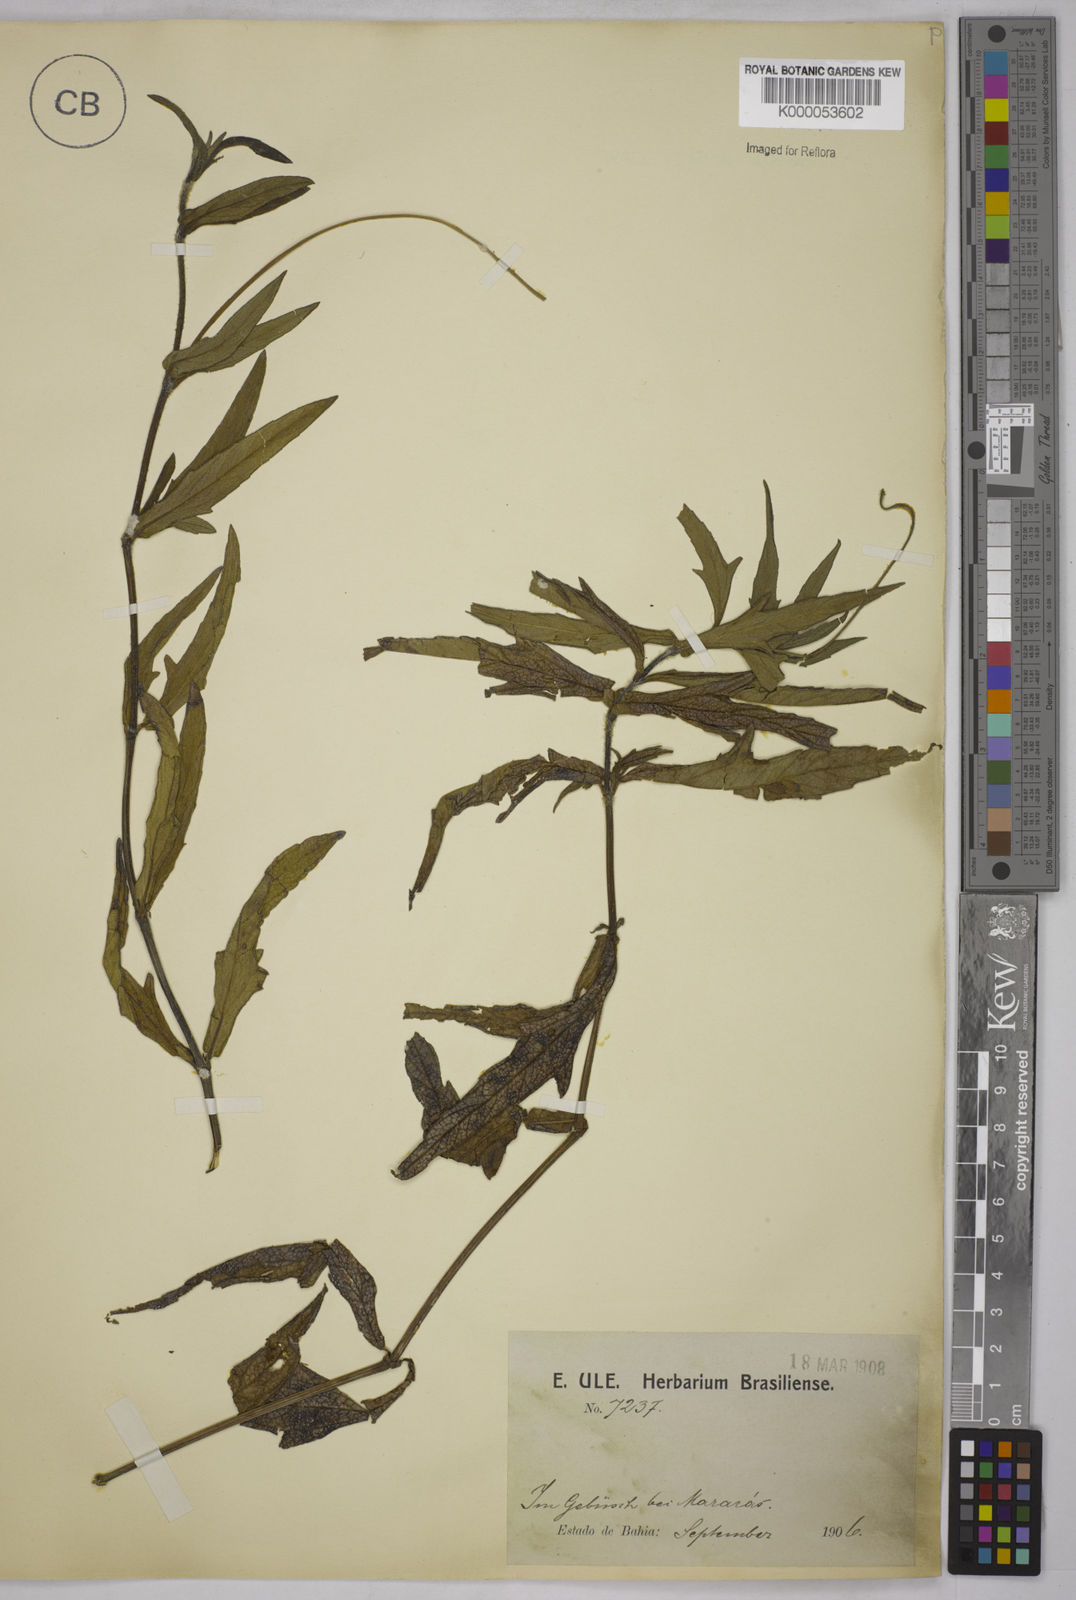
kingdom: Plantae
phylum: Tracheophyta
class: Magnoliopsida
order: Asterales
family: Asteraceae
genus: Sphagneticola
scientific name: Sphagneticola trilobata
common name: Bay biscayne creeping-oxeye
